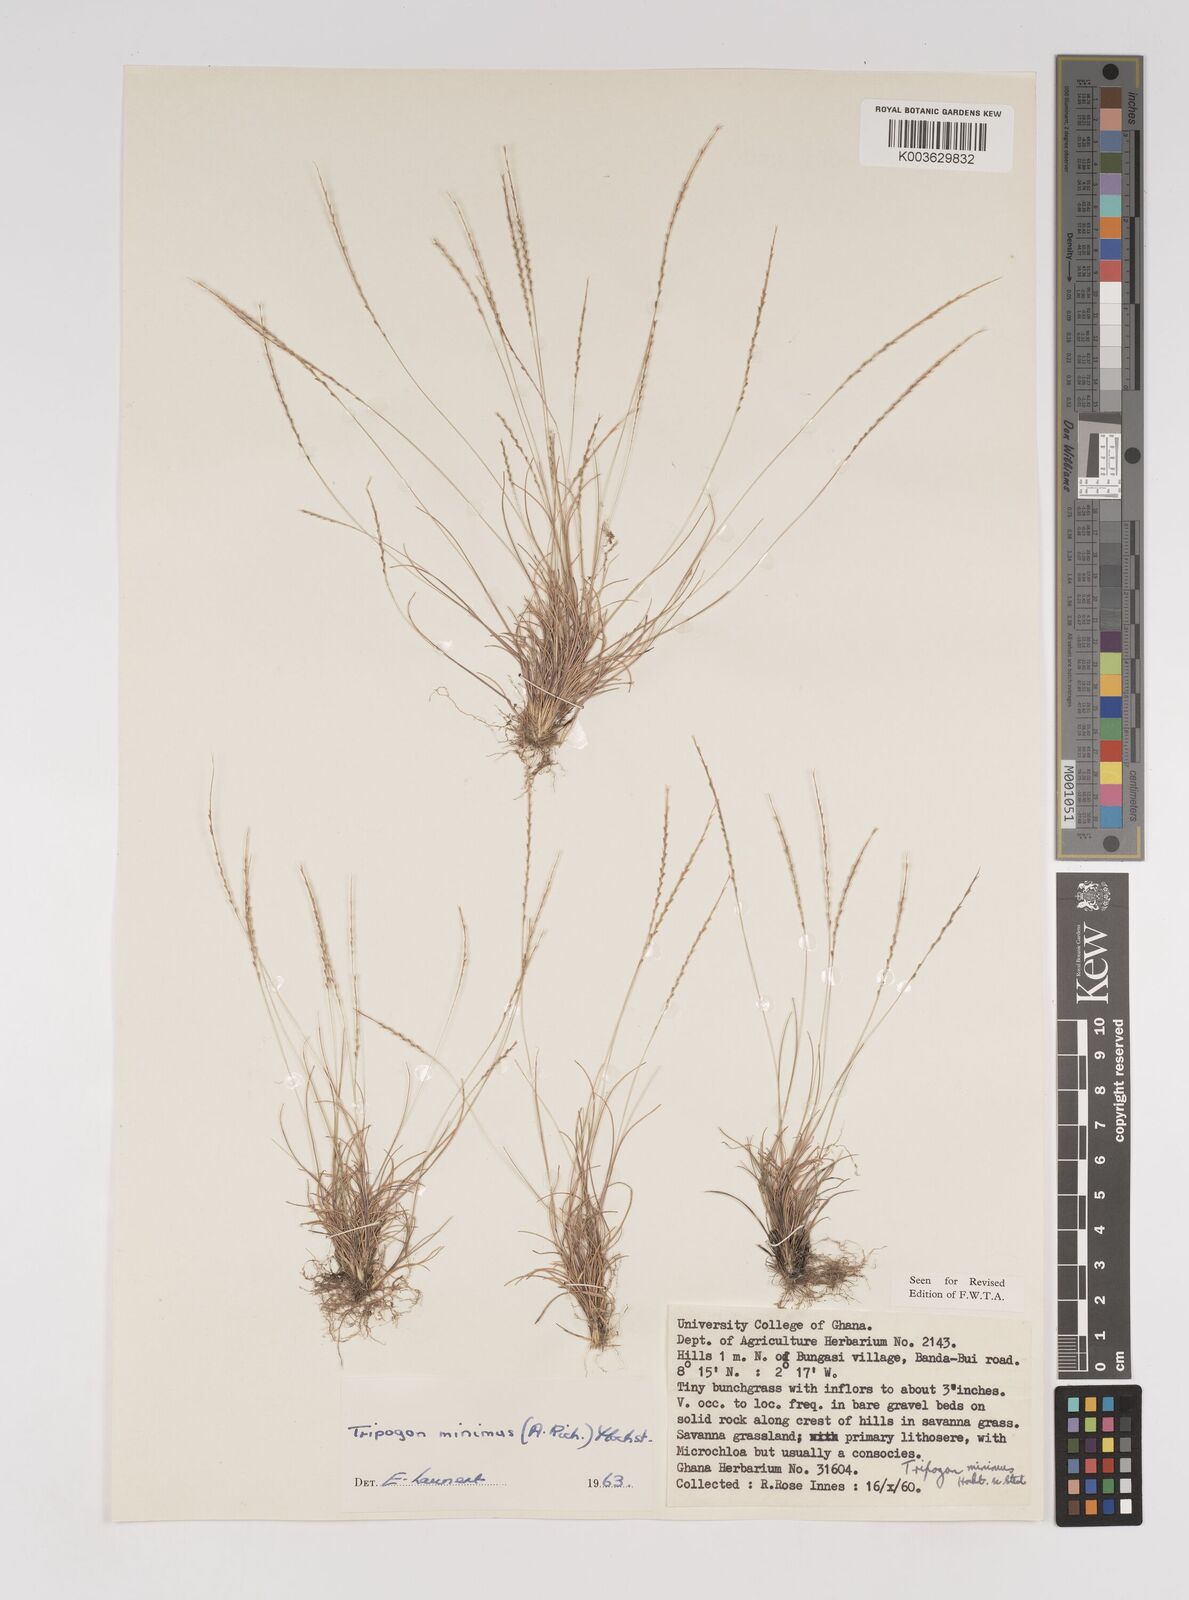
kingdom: Plantae
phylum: Tracheophyta
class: Liliopsida
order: Poales
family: Poaceae
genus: Tripogonella
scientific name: Tripogonella minima
